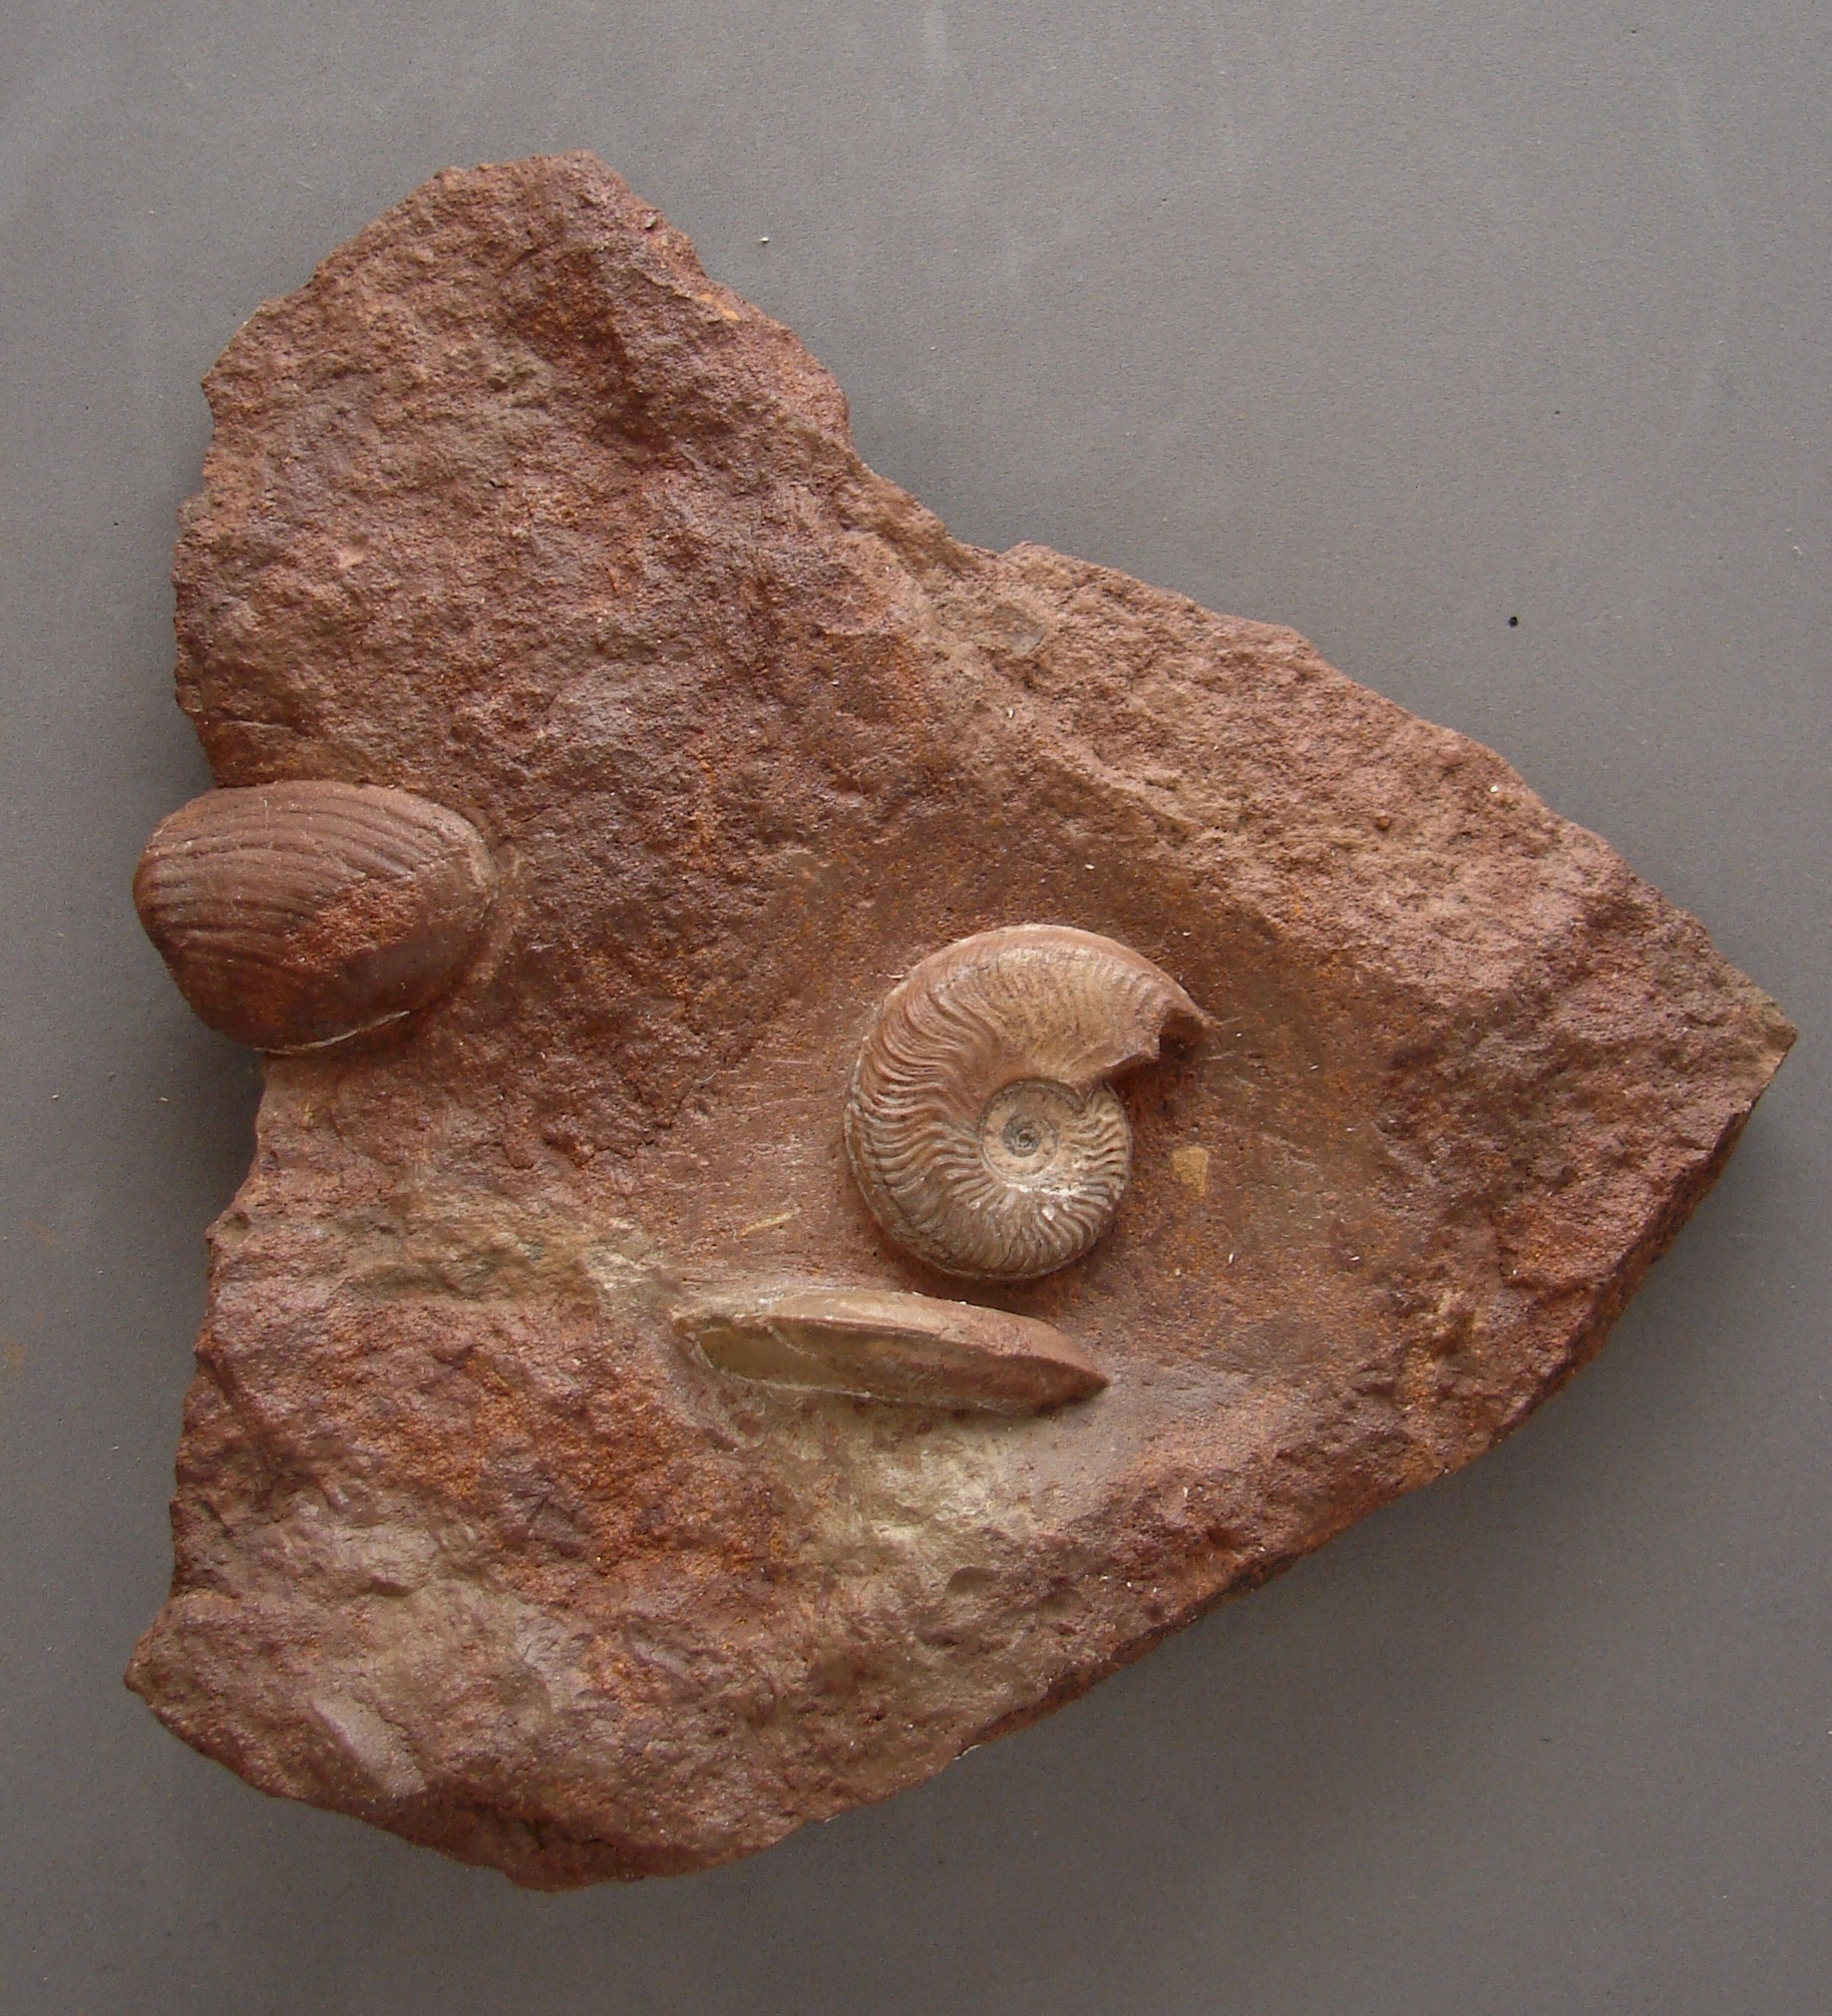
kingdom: Animalia
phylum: Mollusca
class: Cephalopoda
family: Graphoceratidae
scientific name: Graphoceratidae
